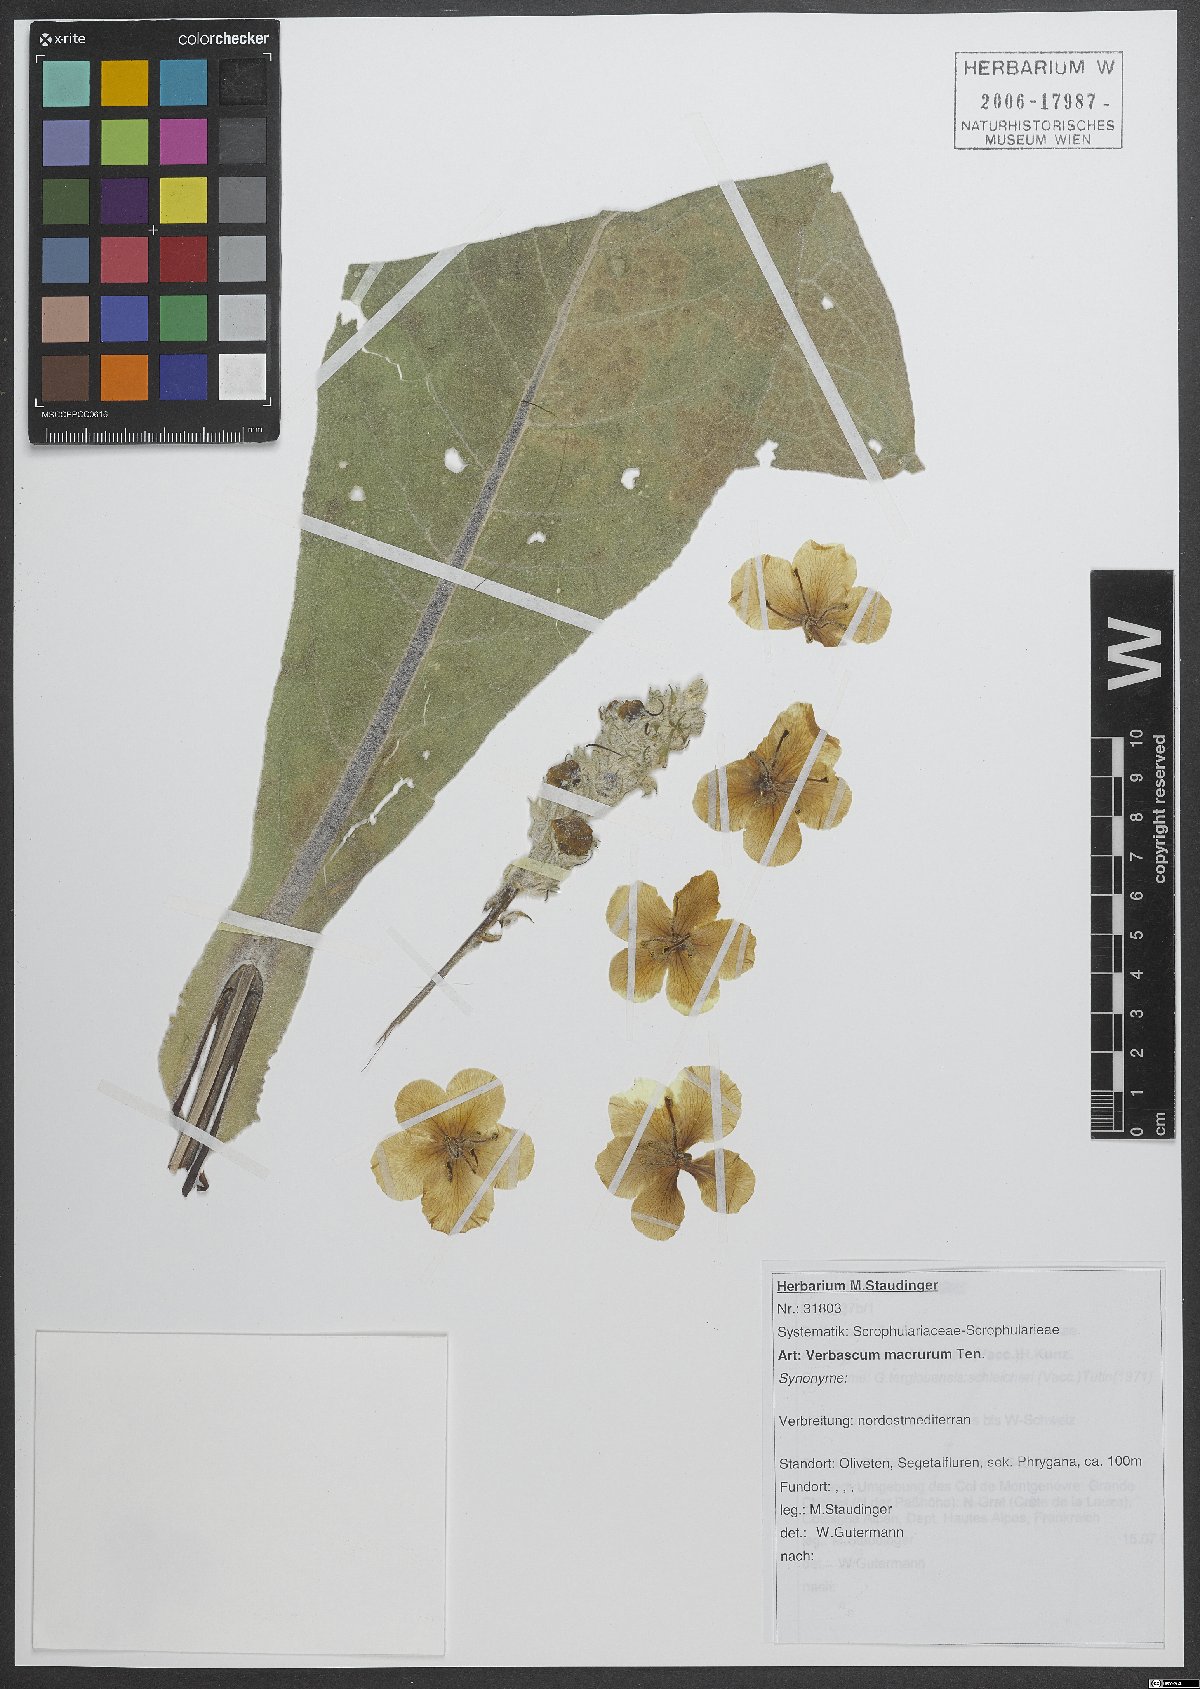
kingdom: Plantae
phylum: Tracheophyta
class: Magnoliopsida
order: Lamiales
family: Scrophulariaceae
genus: Verbascum
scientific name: Verbascum macrurum
